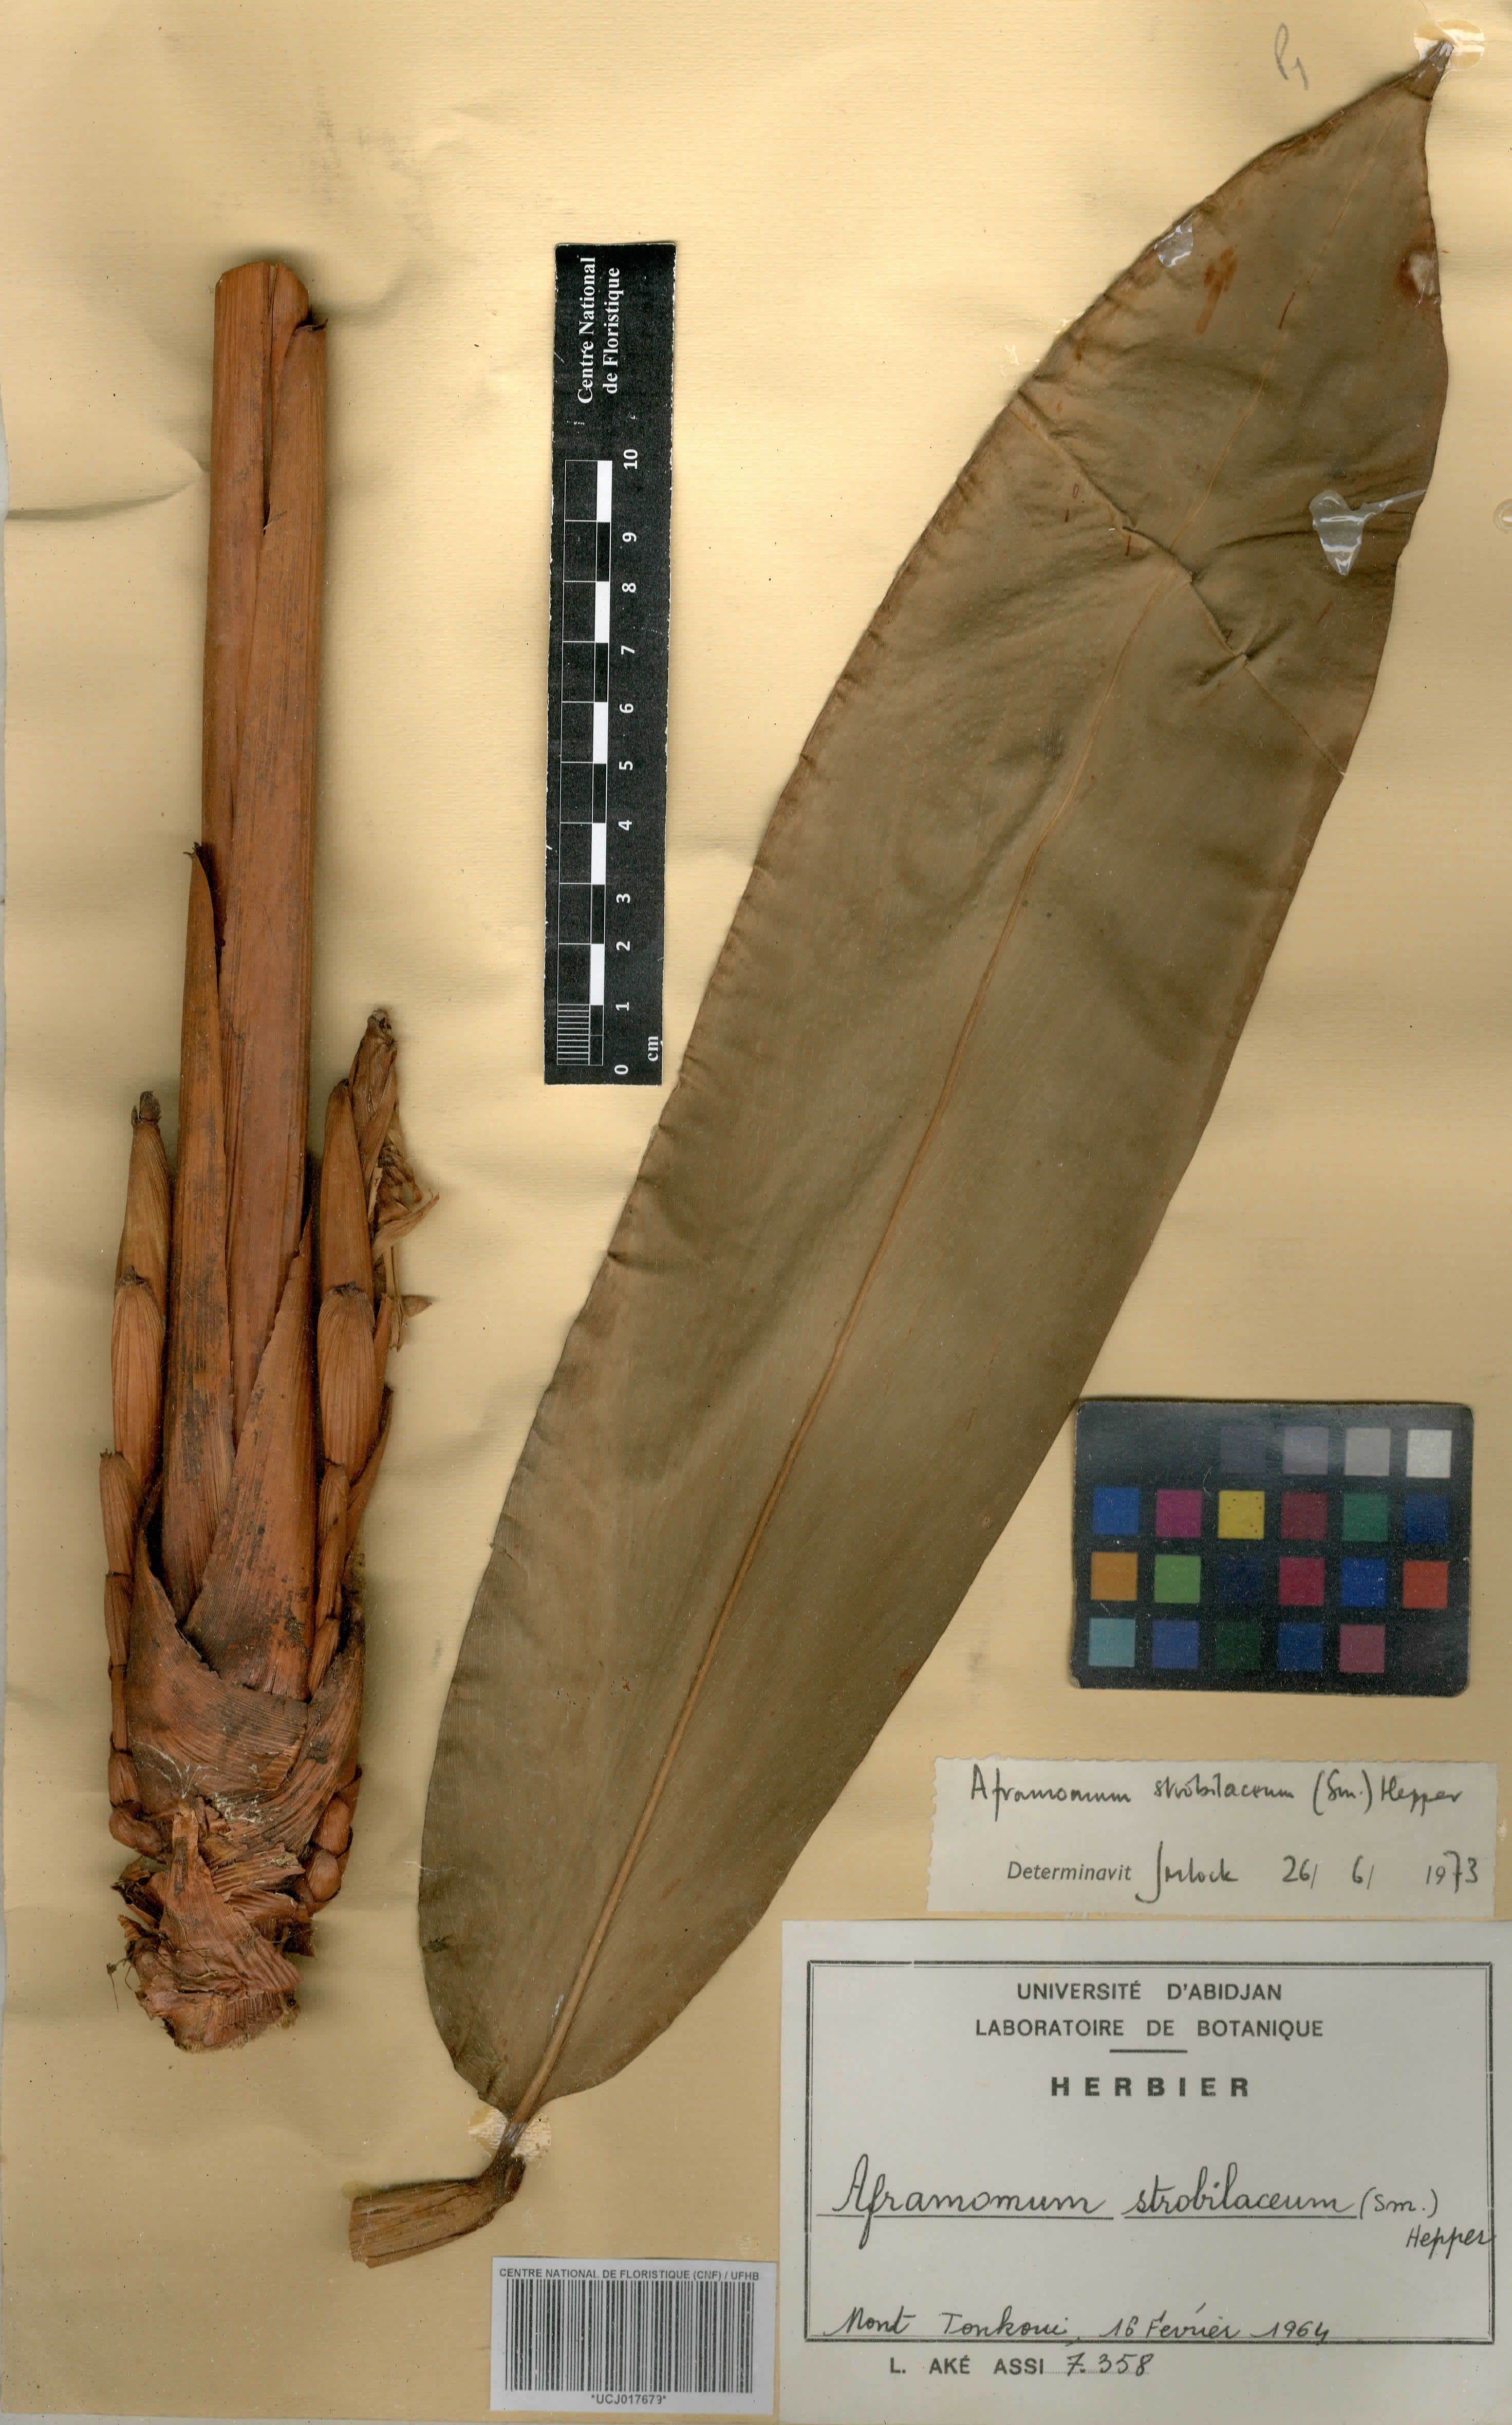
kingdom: Plantae
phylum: Tracheophyta
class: Liliopsida
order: Zingiberales
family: Zingiberaceae
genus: Aframomum
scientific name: Aframomum strobilaceum
